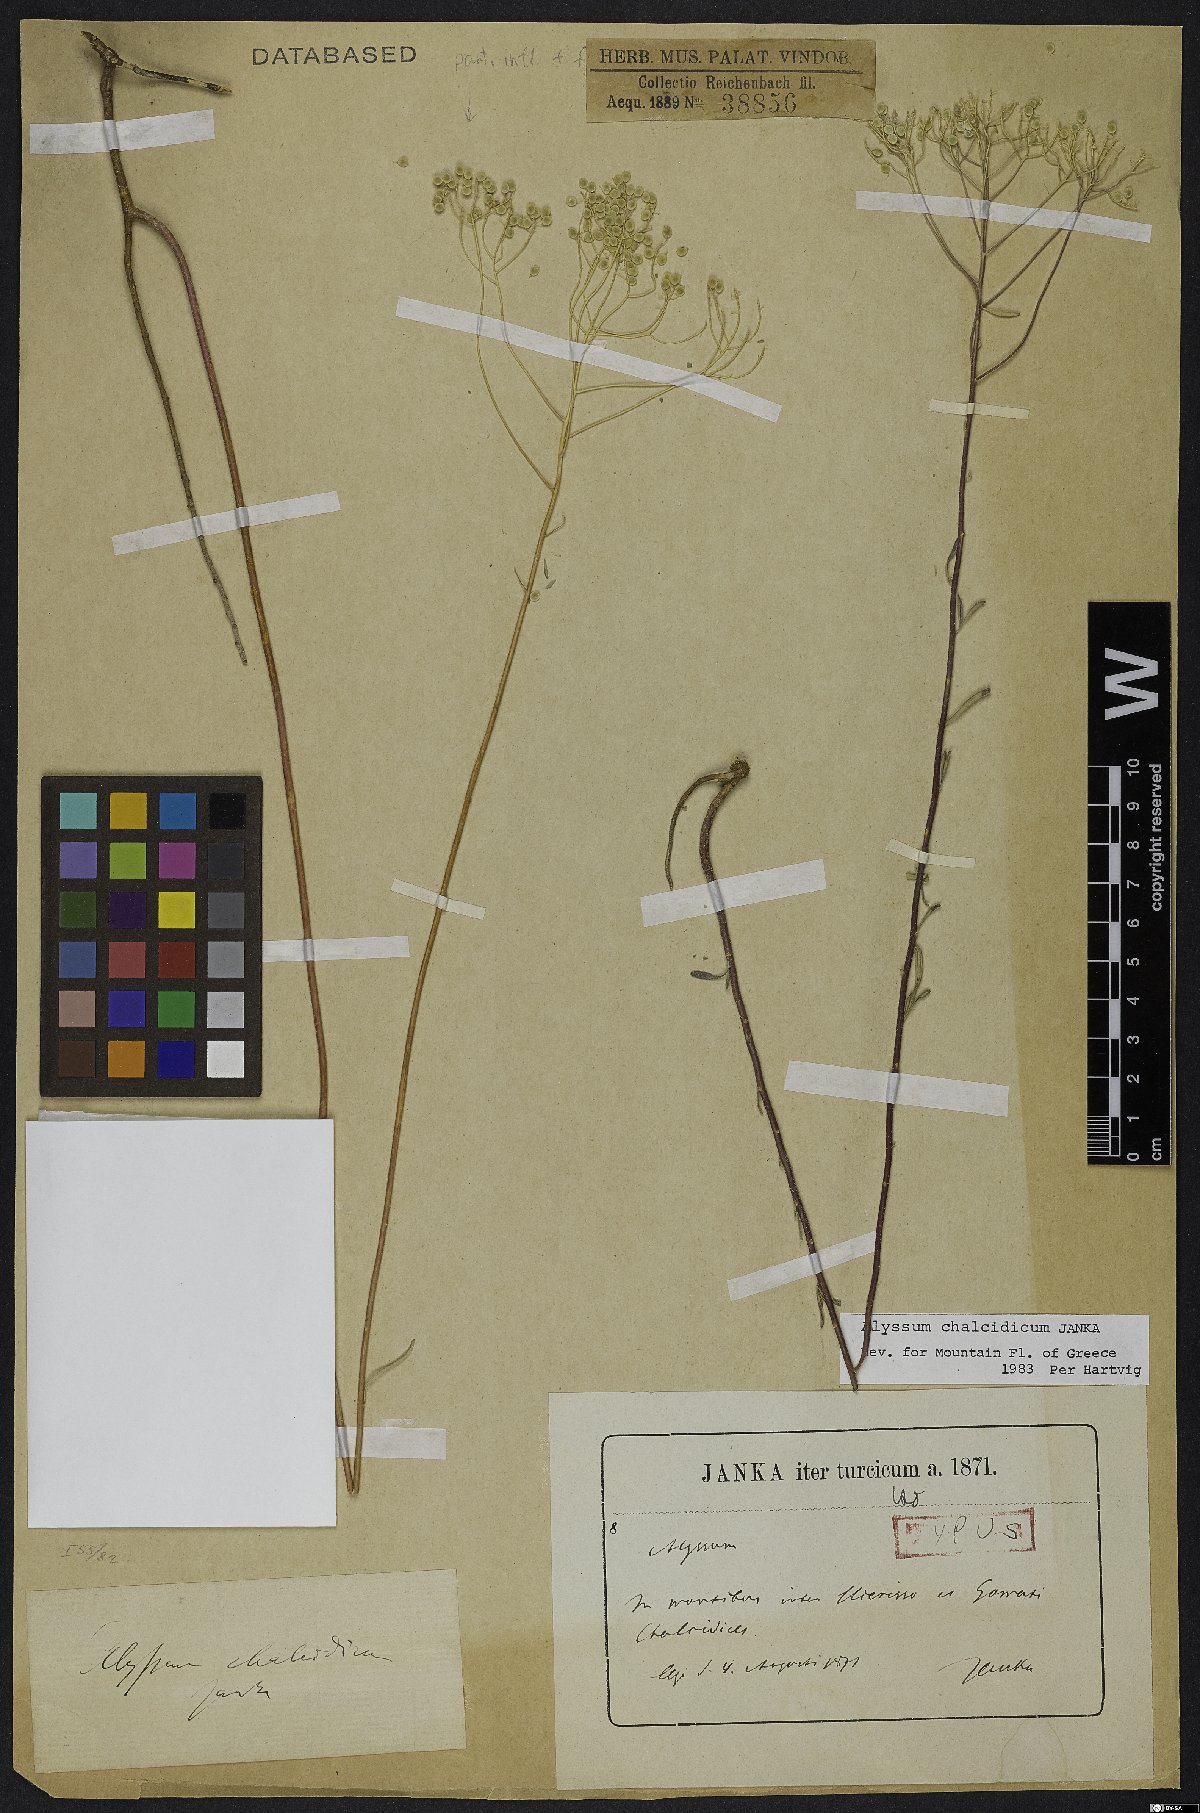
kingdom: Plantae
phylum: Tracheophyta
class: Magnoliopsida
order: Brassicales
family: Brassicaceae
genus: Odontarrhena
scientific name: Odontarrhena chalcidica
